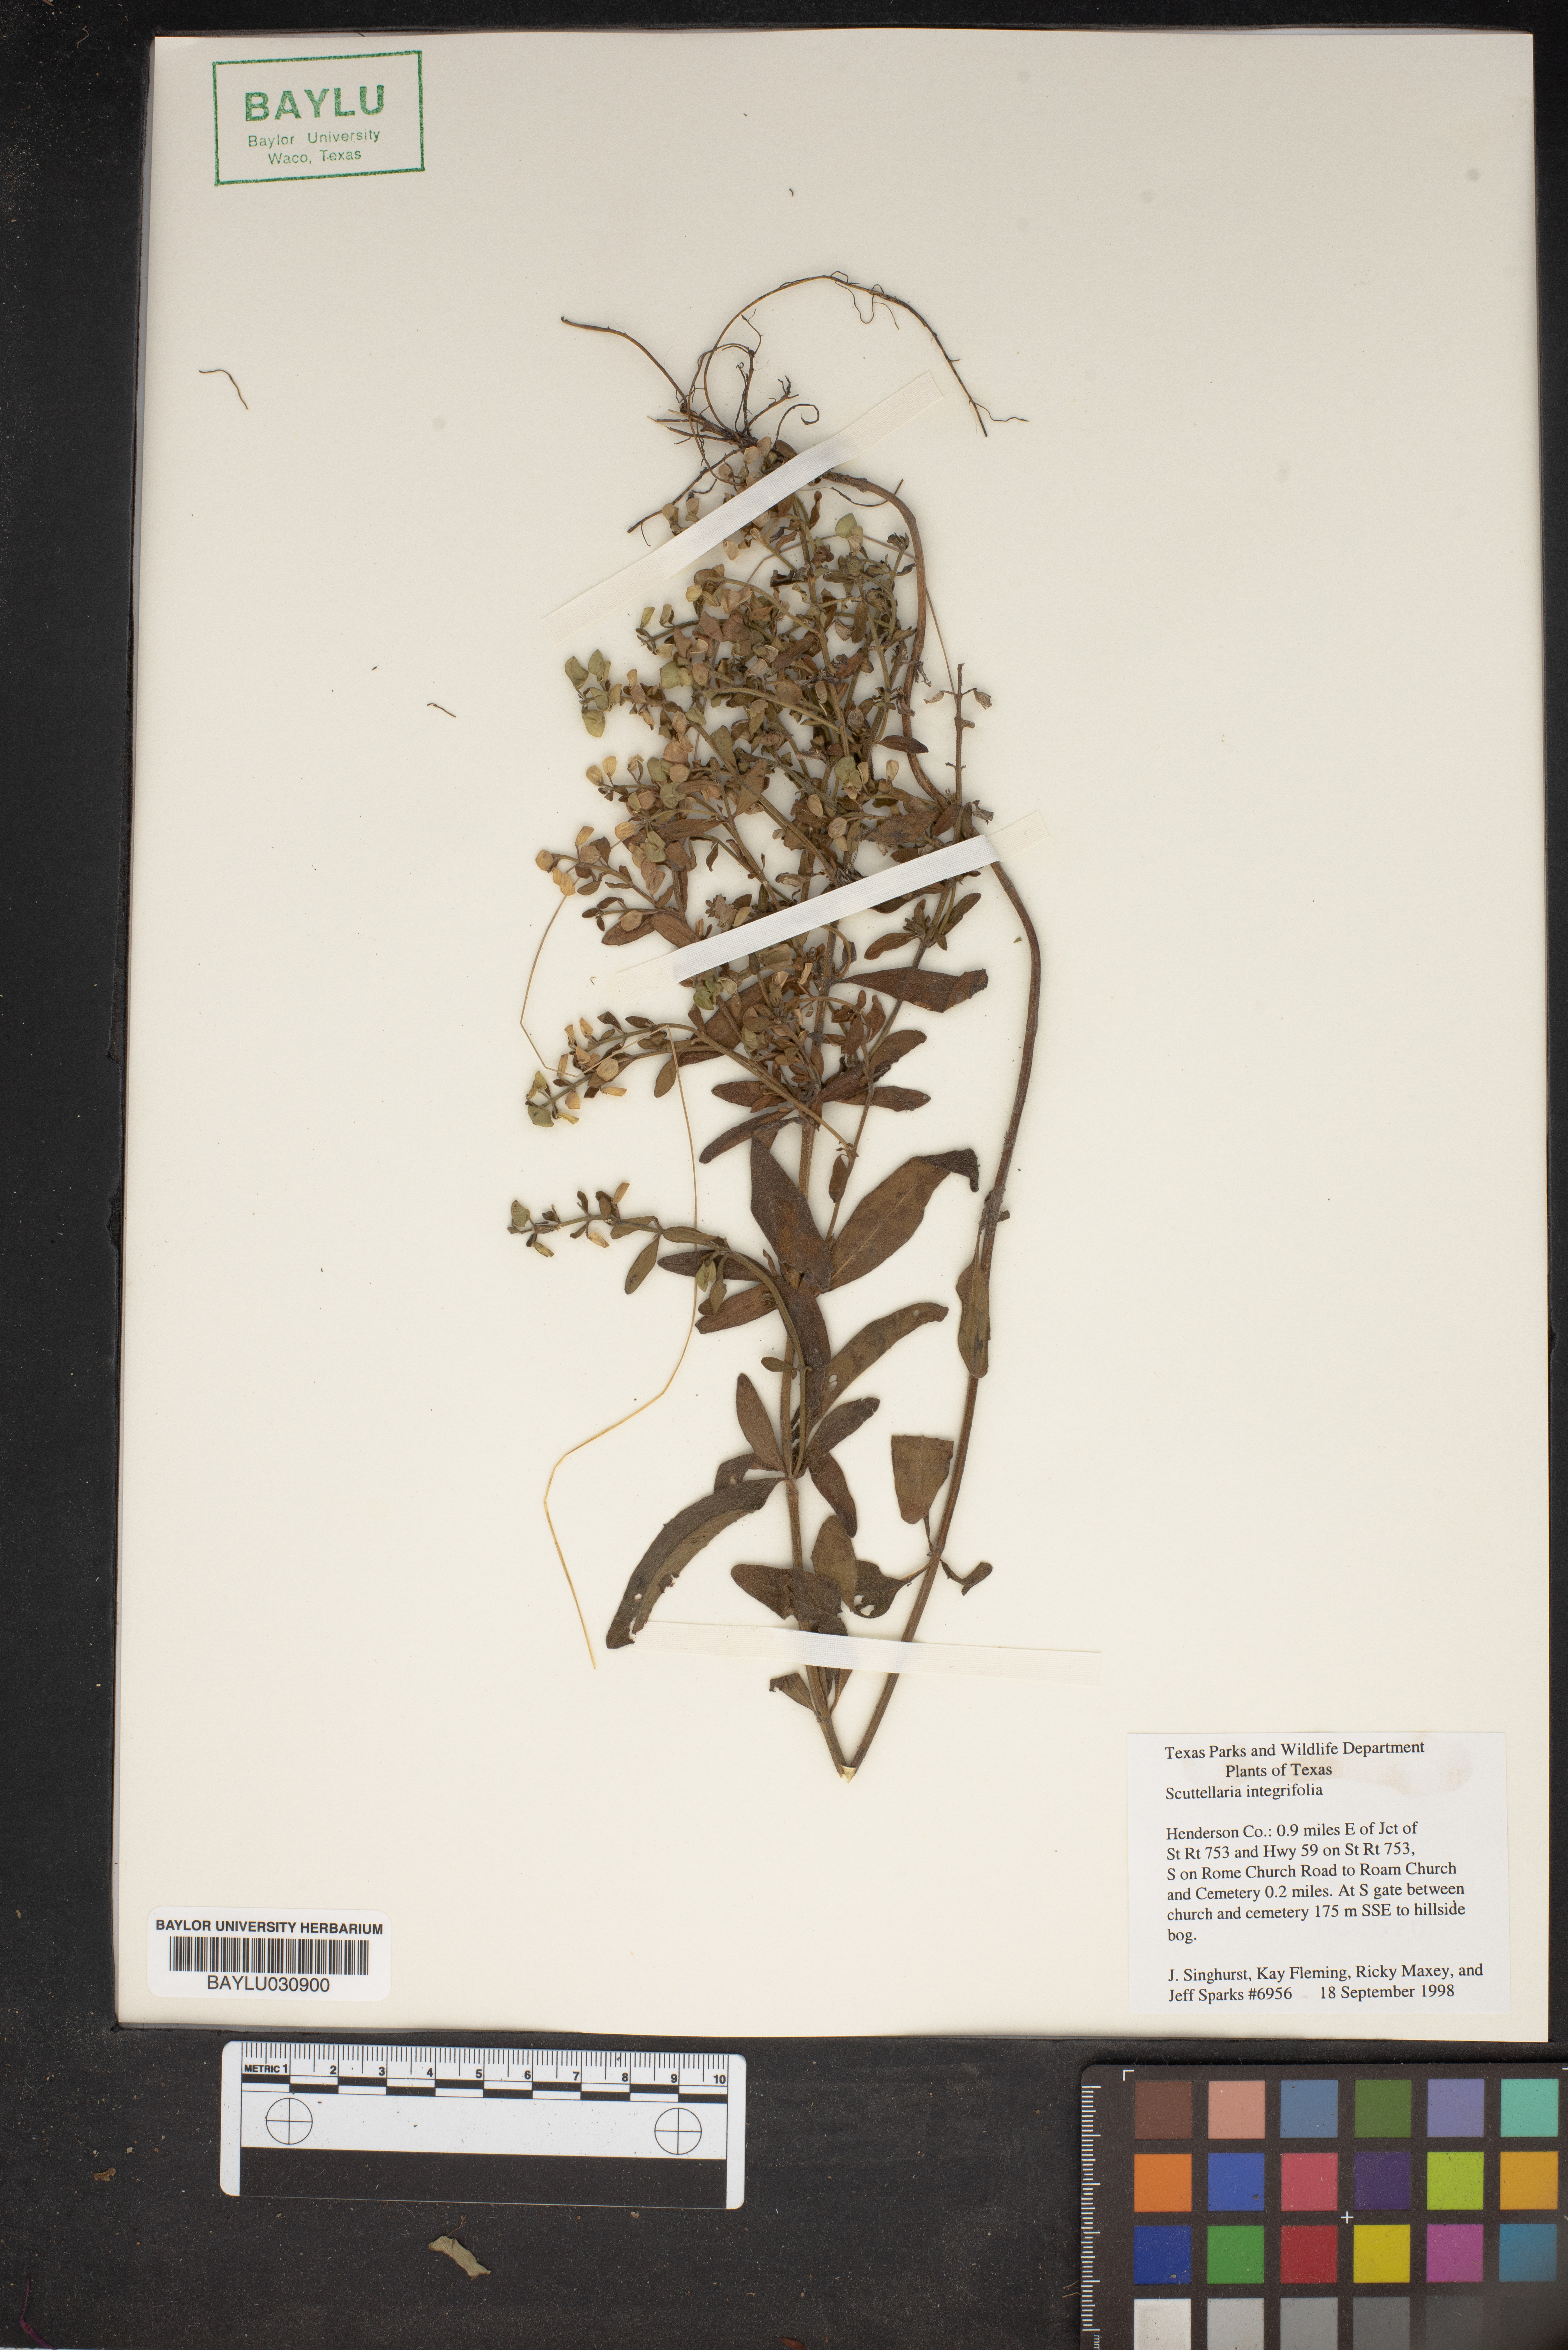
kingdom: Plantae
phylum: Tracheophyta
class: Magnoliopsida
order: Lamiales
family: Lamiaceae
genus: Scutellaria
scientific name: Scutellaria integrifolia
